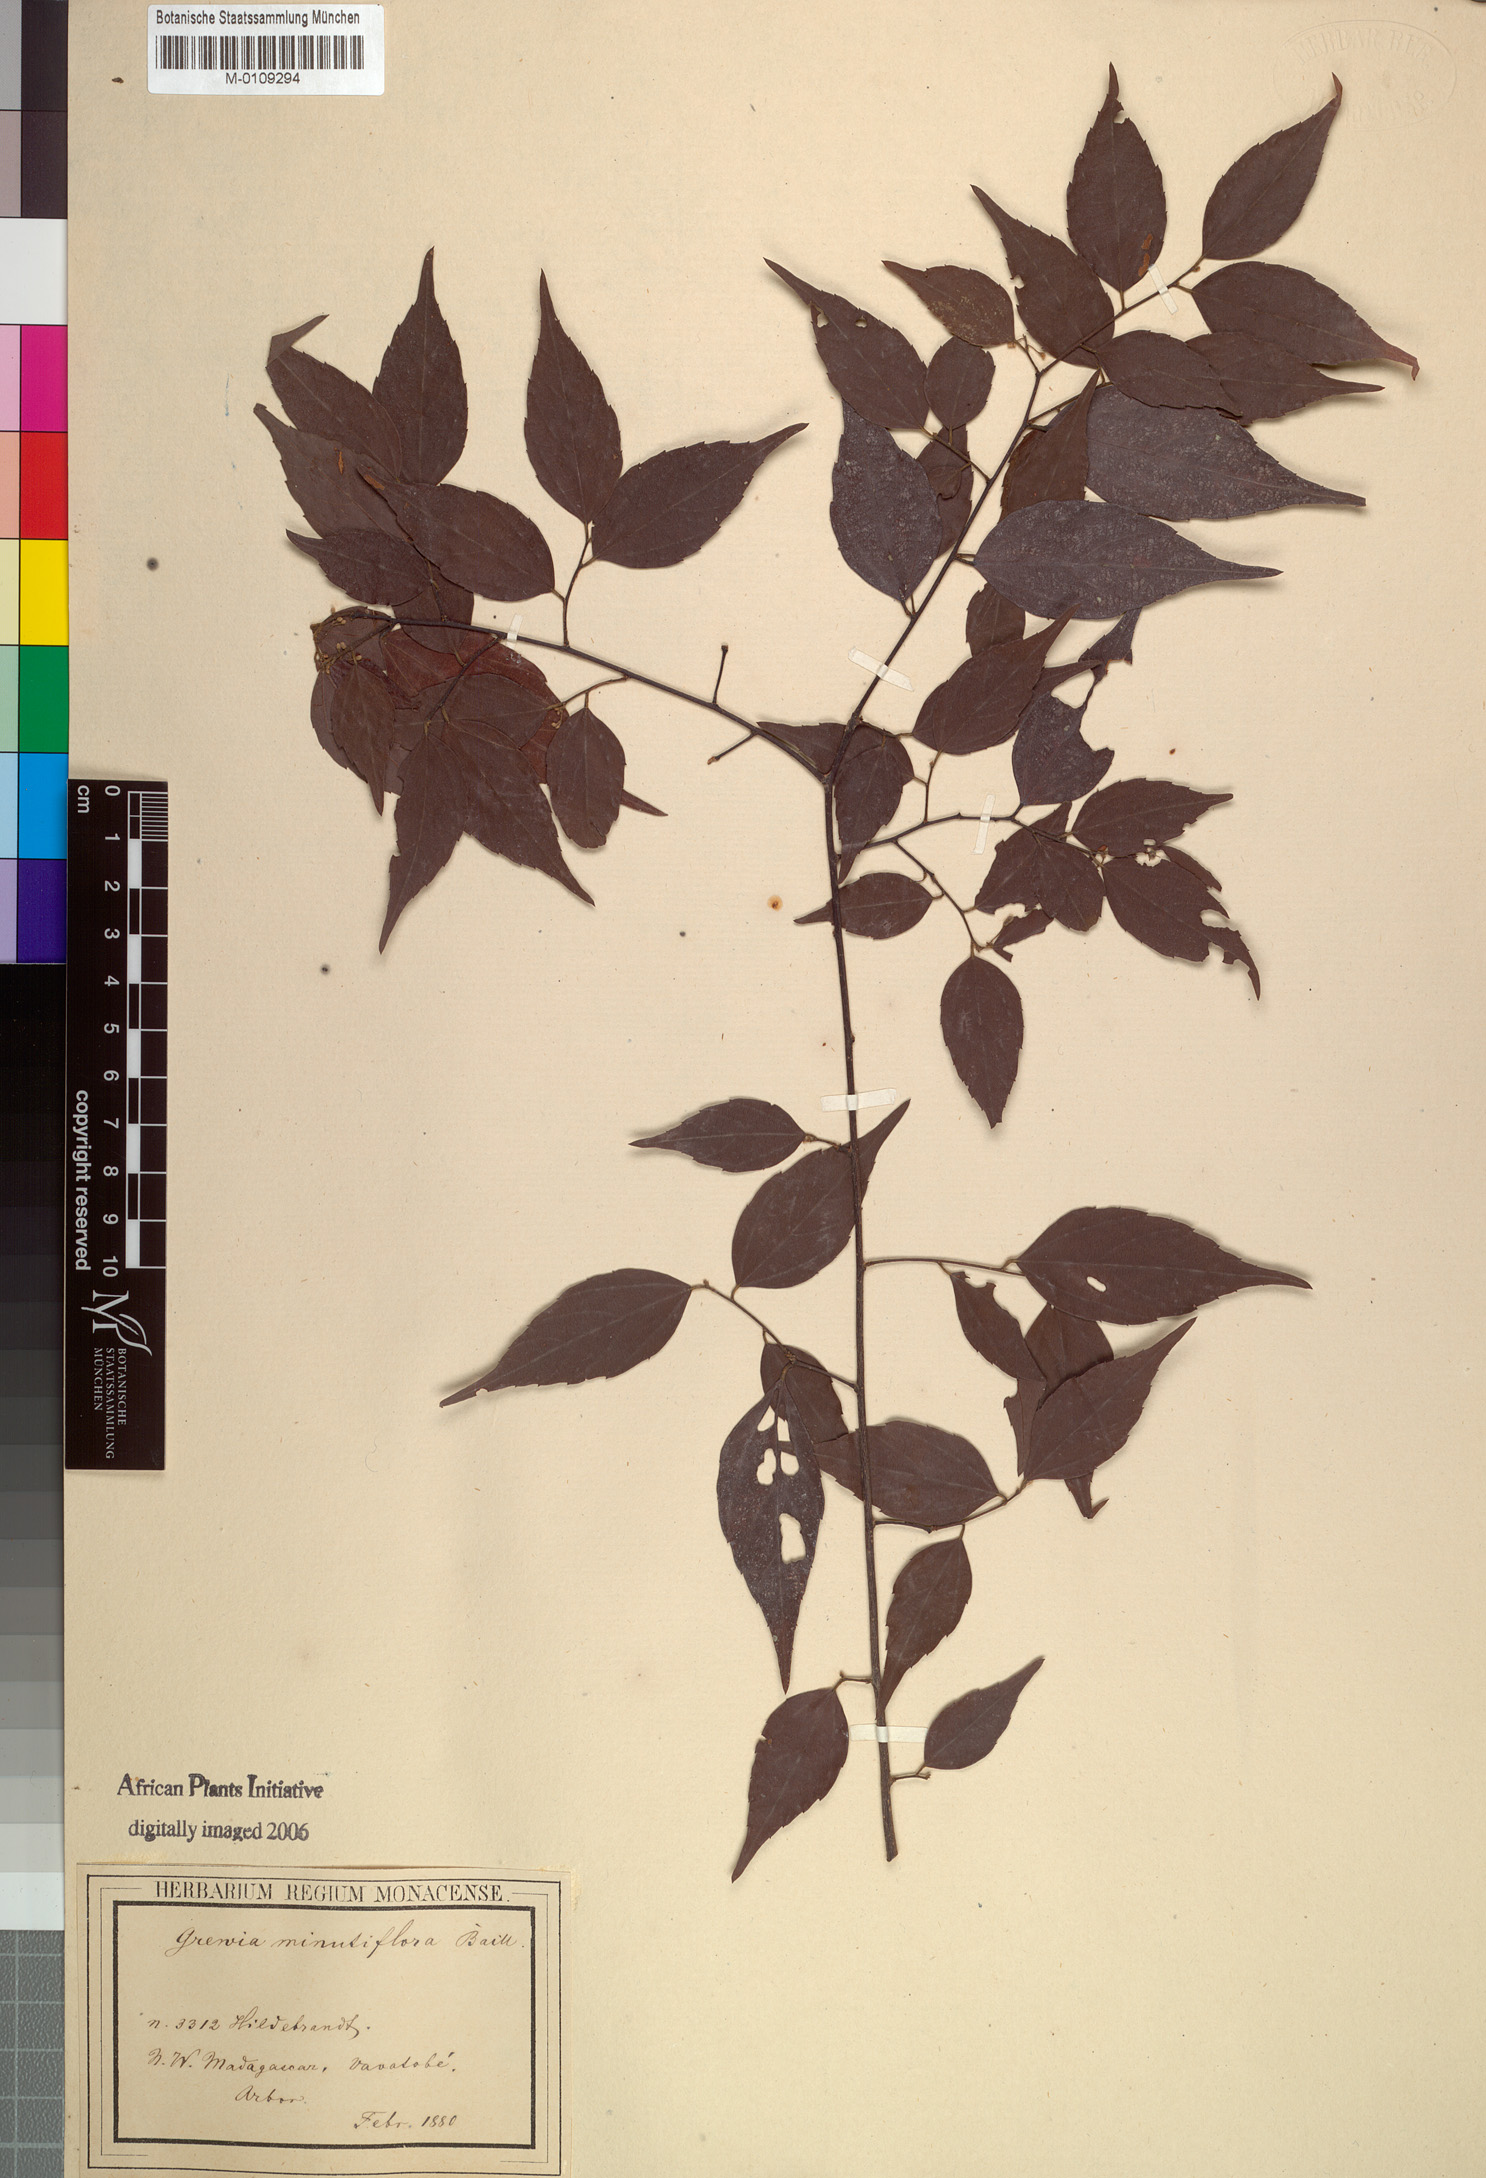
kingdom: Plantae
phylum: Tracheophyta
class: Magnoliopsida
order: Malvales
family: Malvaceae
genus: Grewia
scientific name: Grewia brideliifolia
